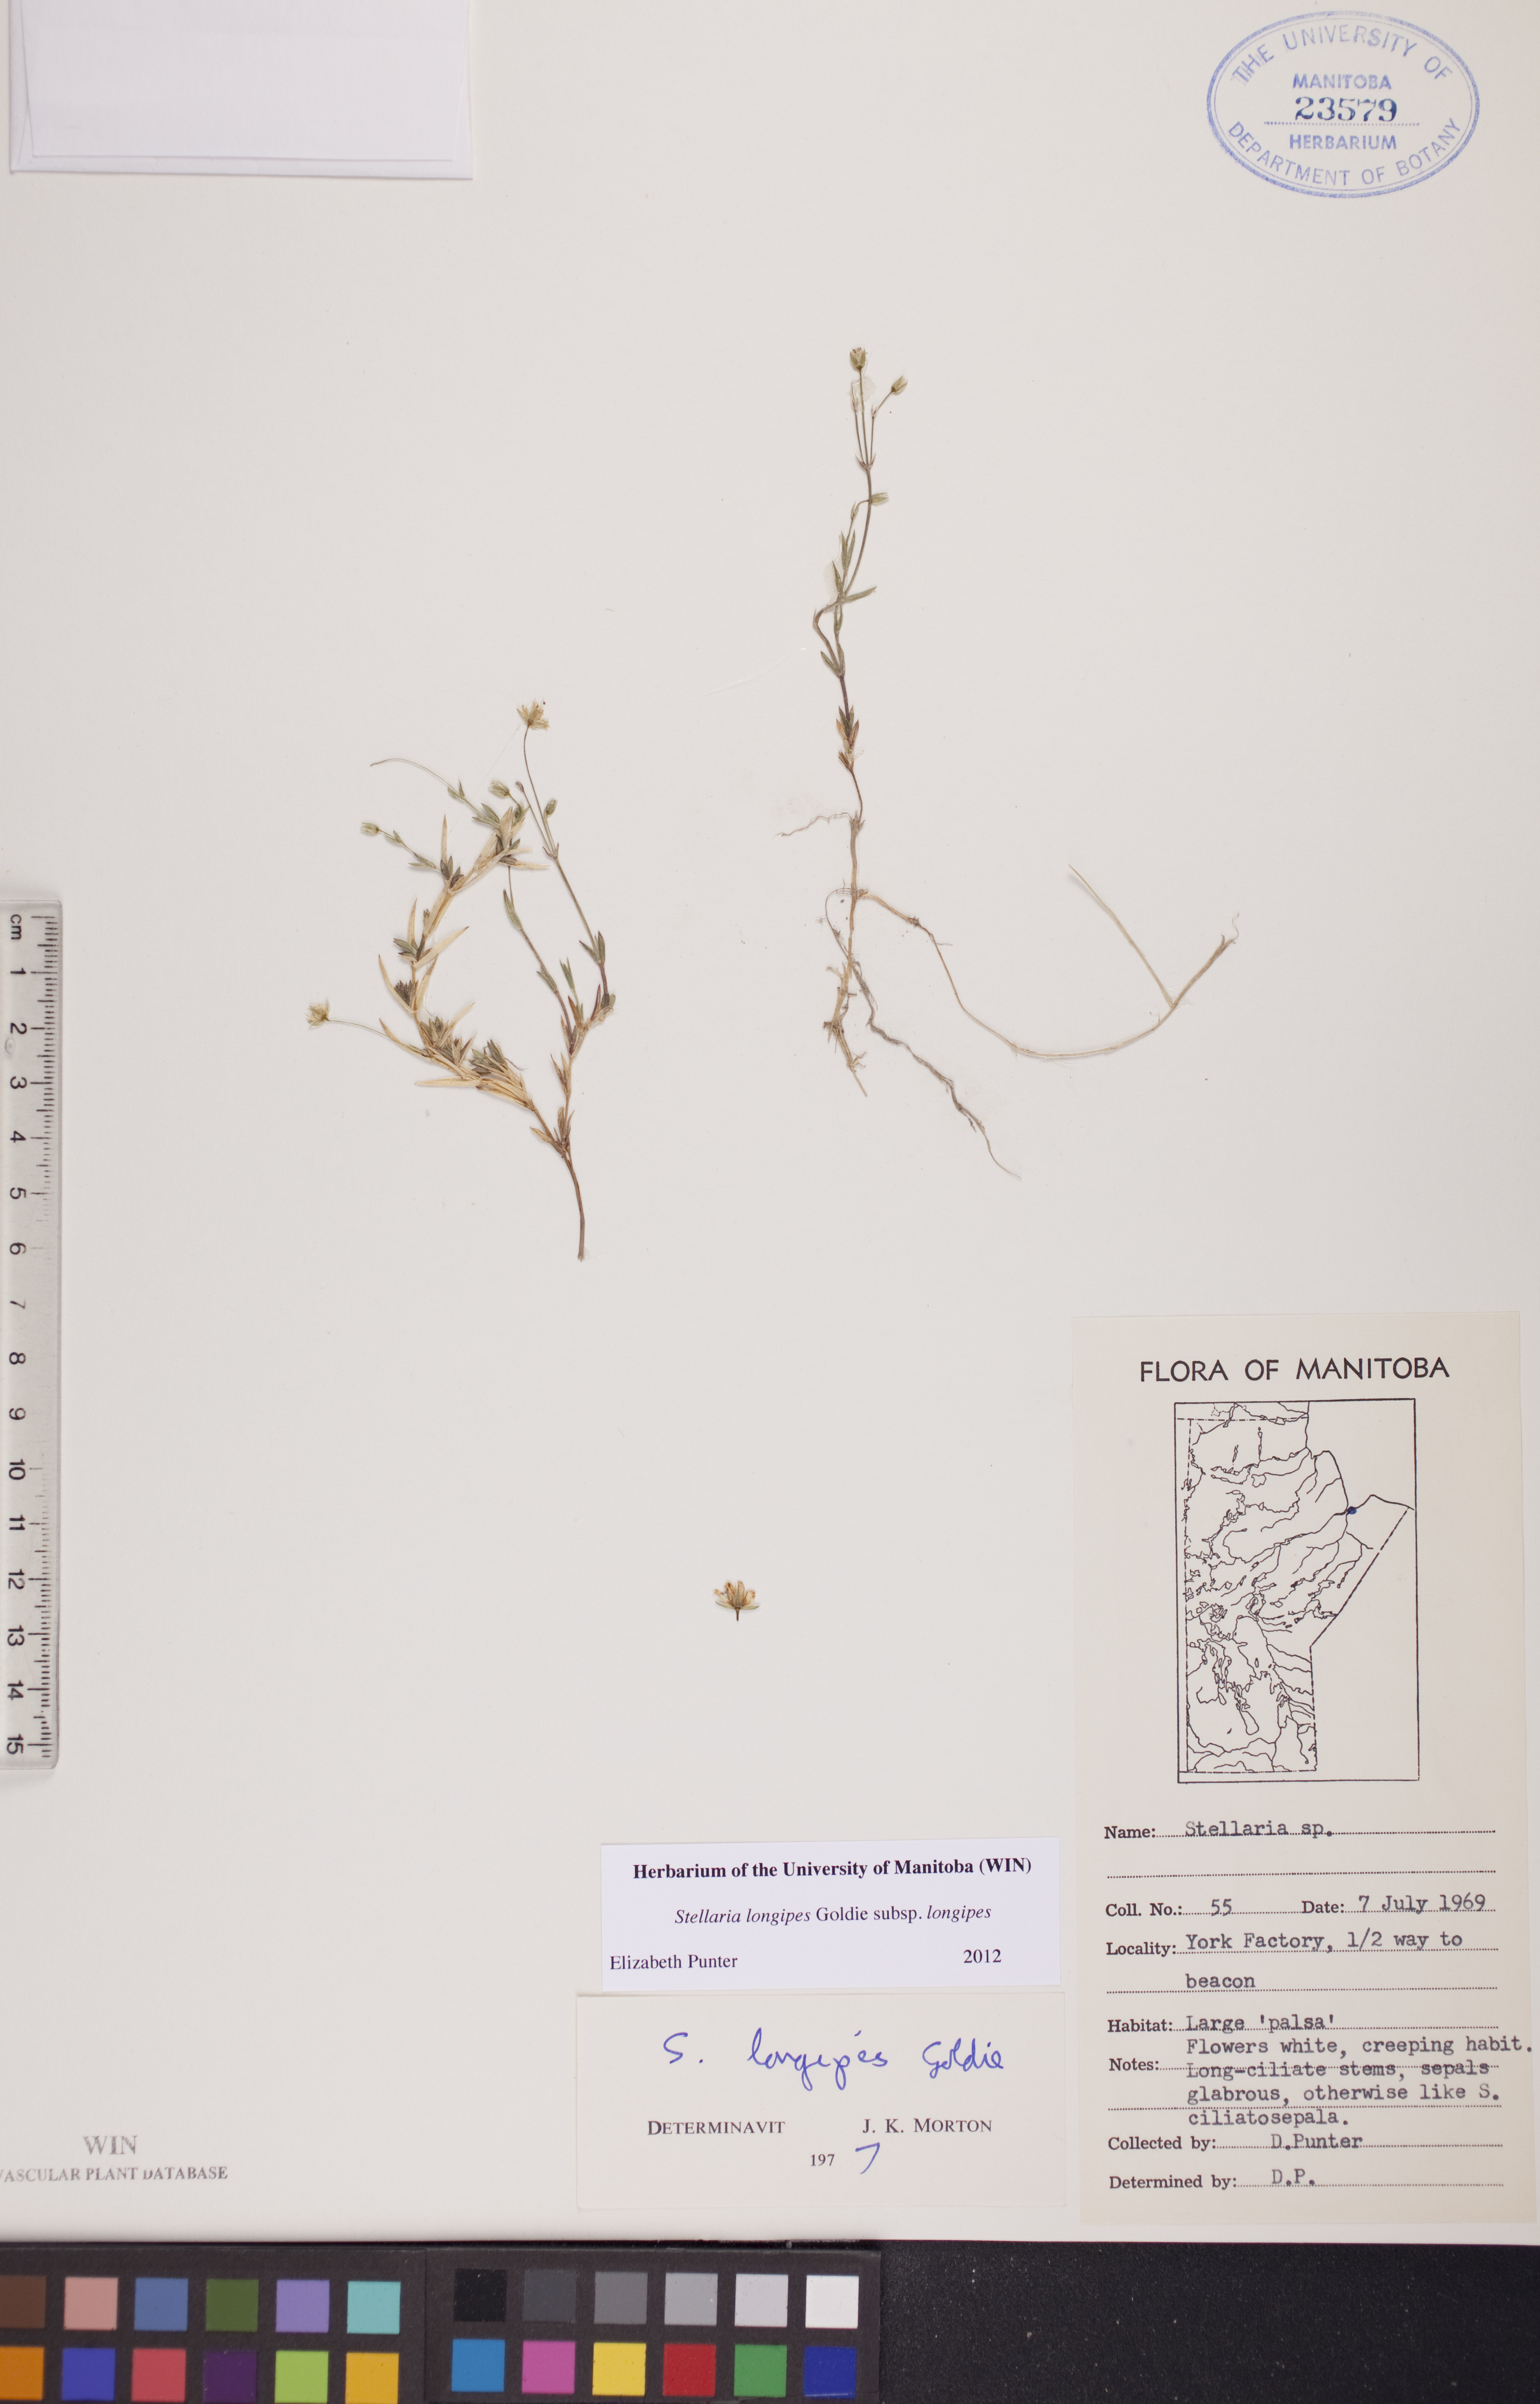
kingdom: Plantae
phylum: Tracheophyta
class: Magnoliopsida
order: Caryophyllales
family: Caryophyllaceae
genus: Stellaria
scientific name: Stellaria longipes
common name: Goldie's starwort
